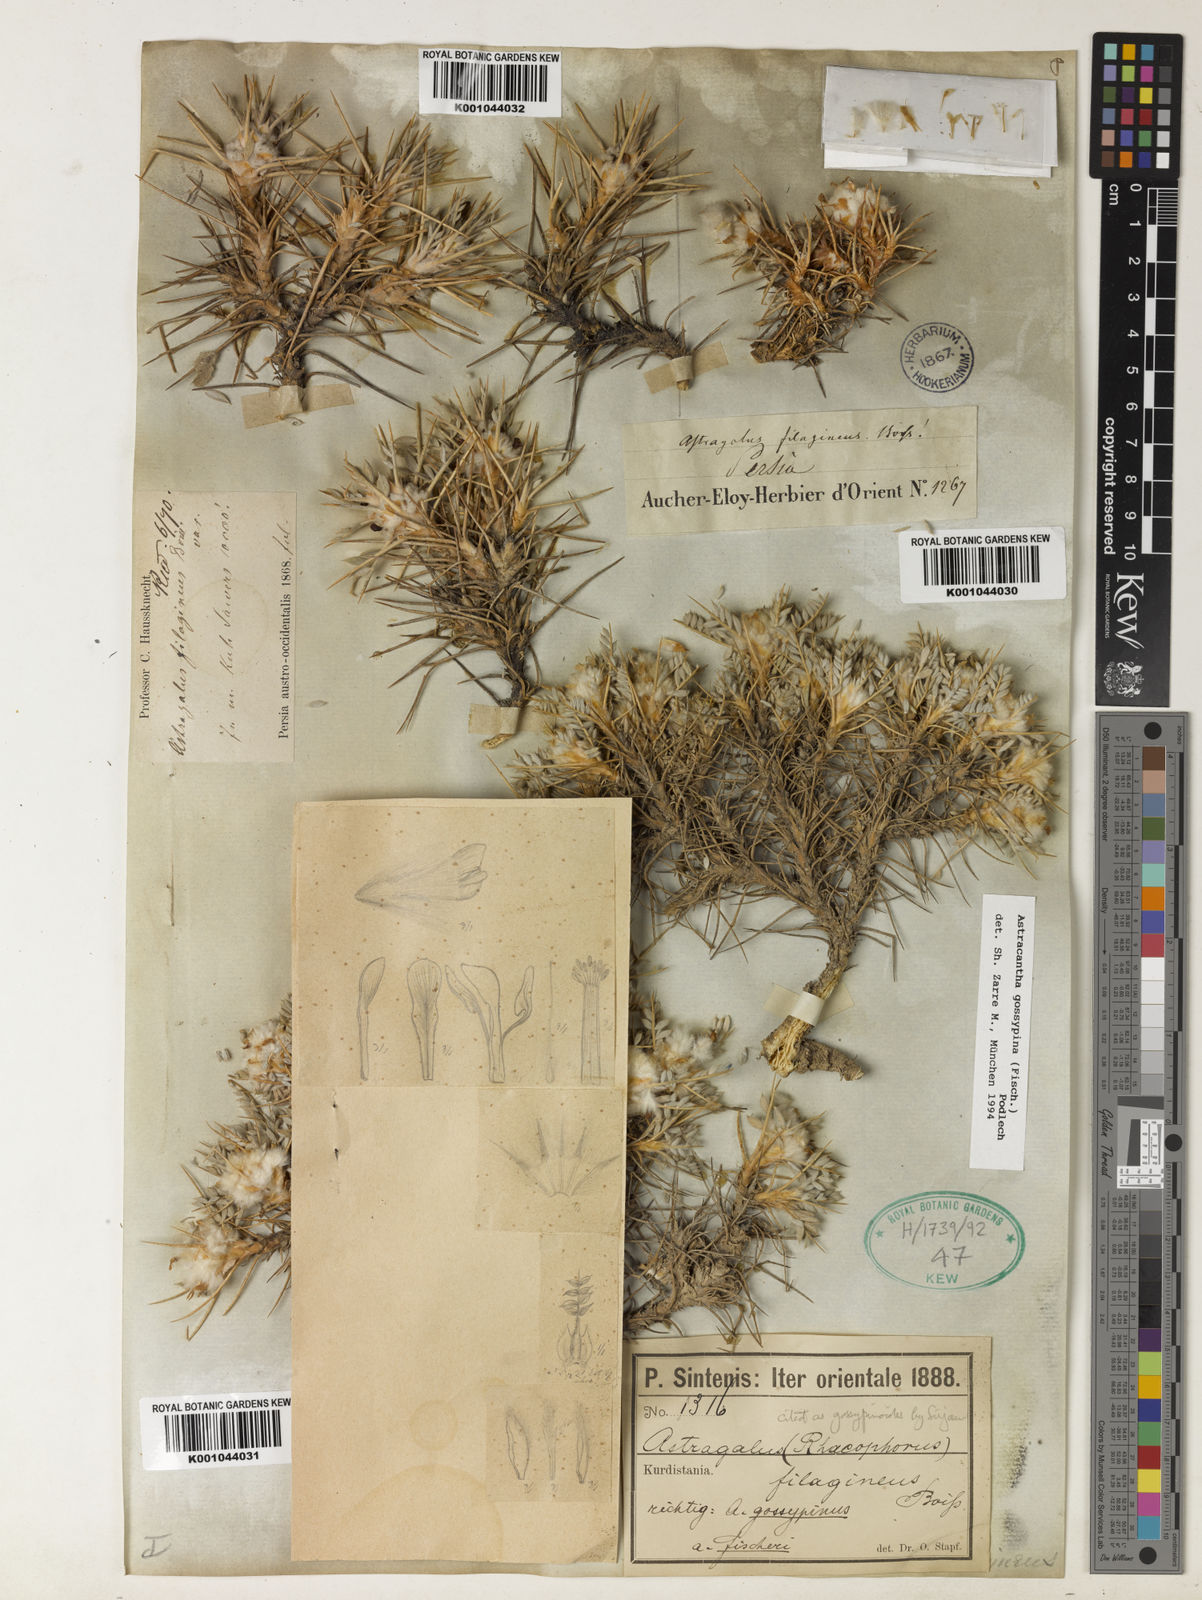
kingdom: Plantae
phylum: Tracheophyta
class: Magnoliopsida
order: Fabales
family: Fabaceae
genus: Astragalus
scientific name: Astragalus gossypinus
